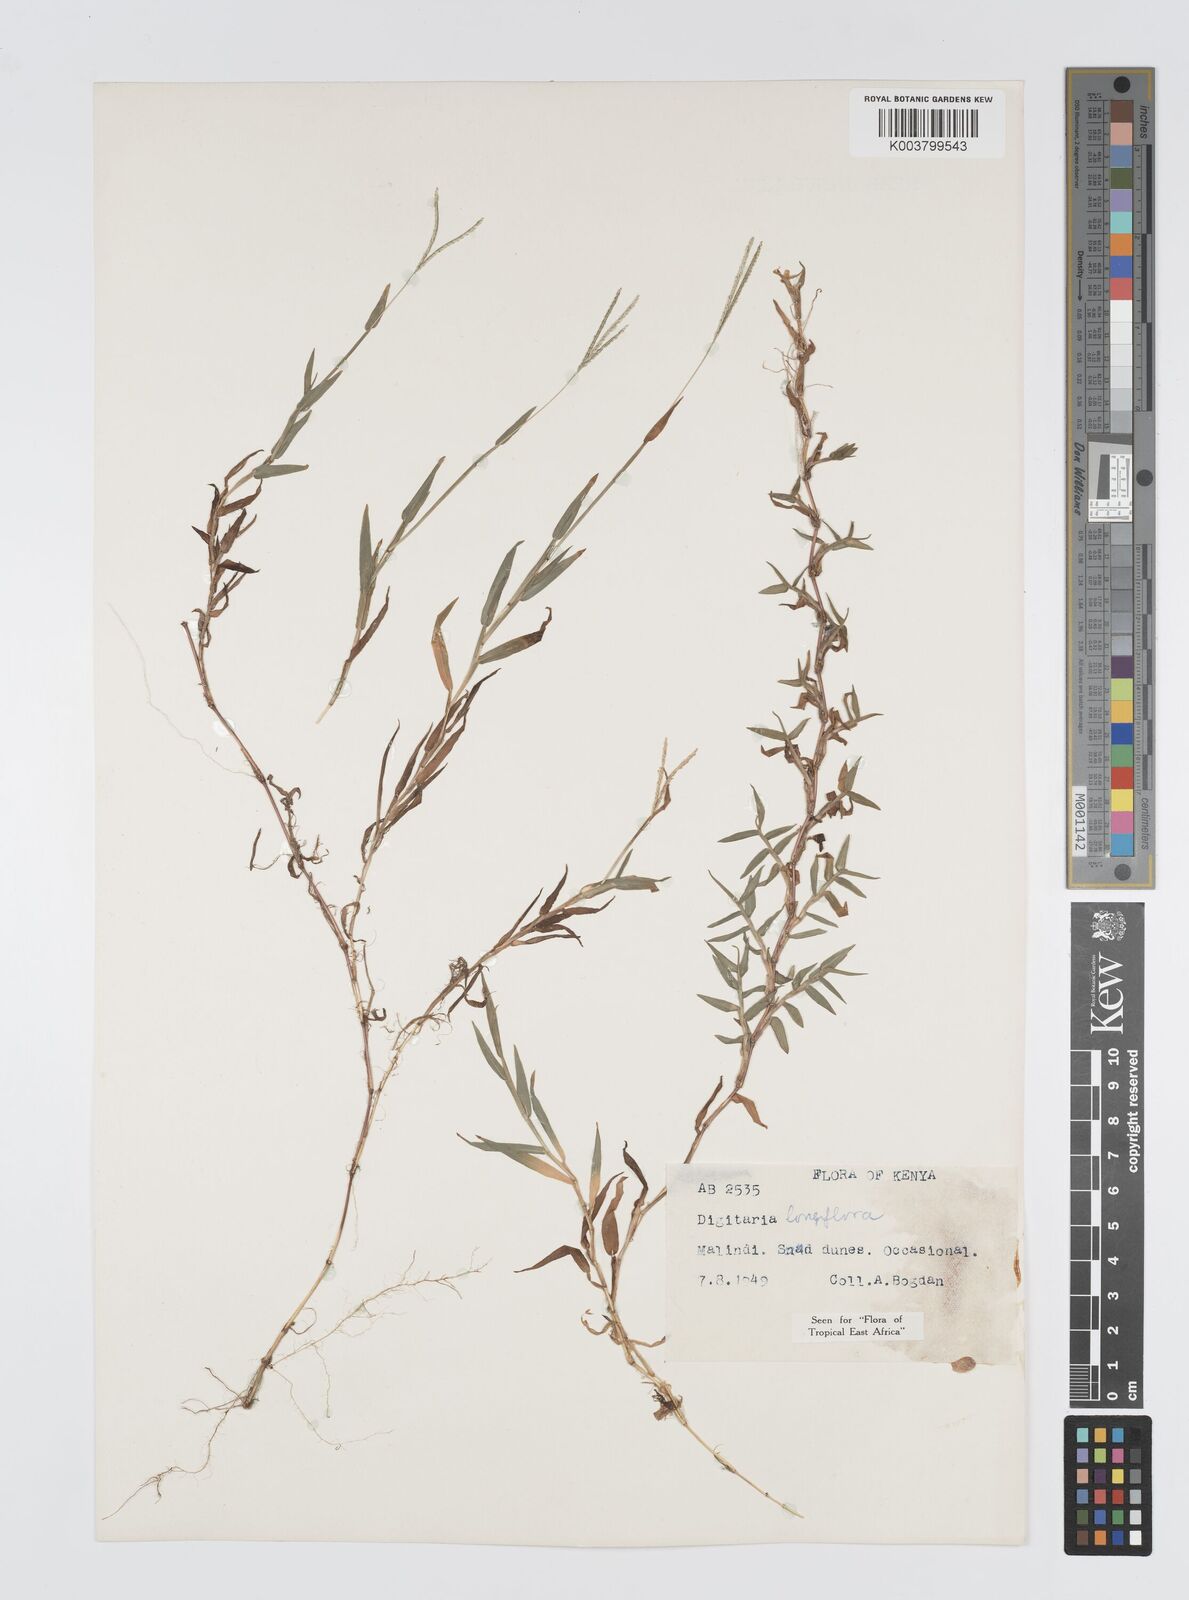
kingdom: Plantae
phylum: Tracheophyta
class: Liliopsida
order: Poales
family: Poaceae
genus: Digitaria
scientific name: Digitaria longiflora
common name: Wire crabgrass
